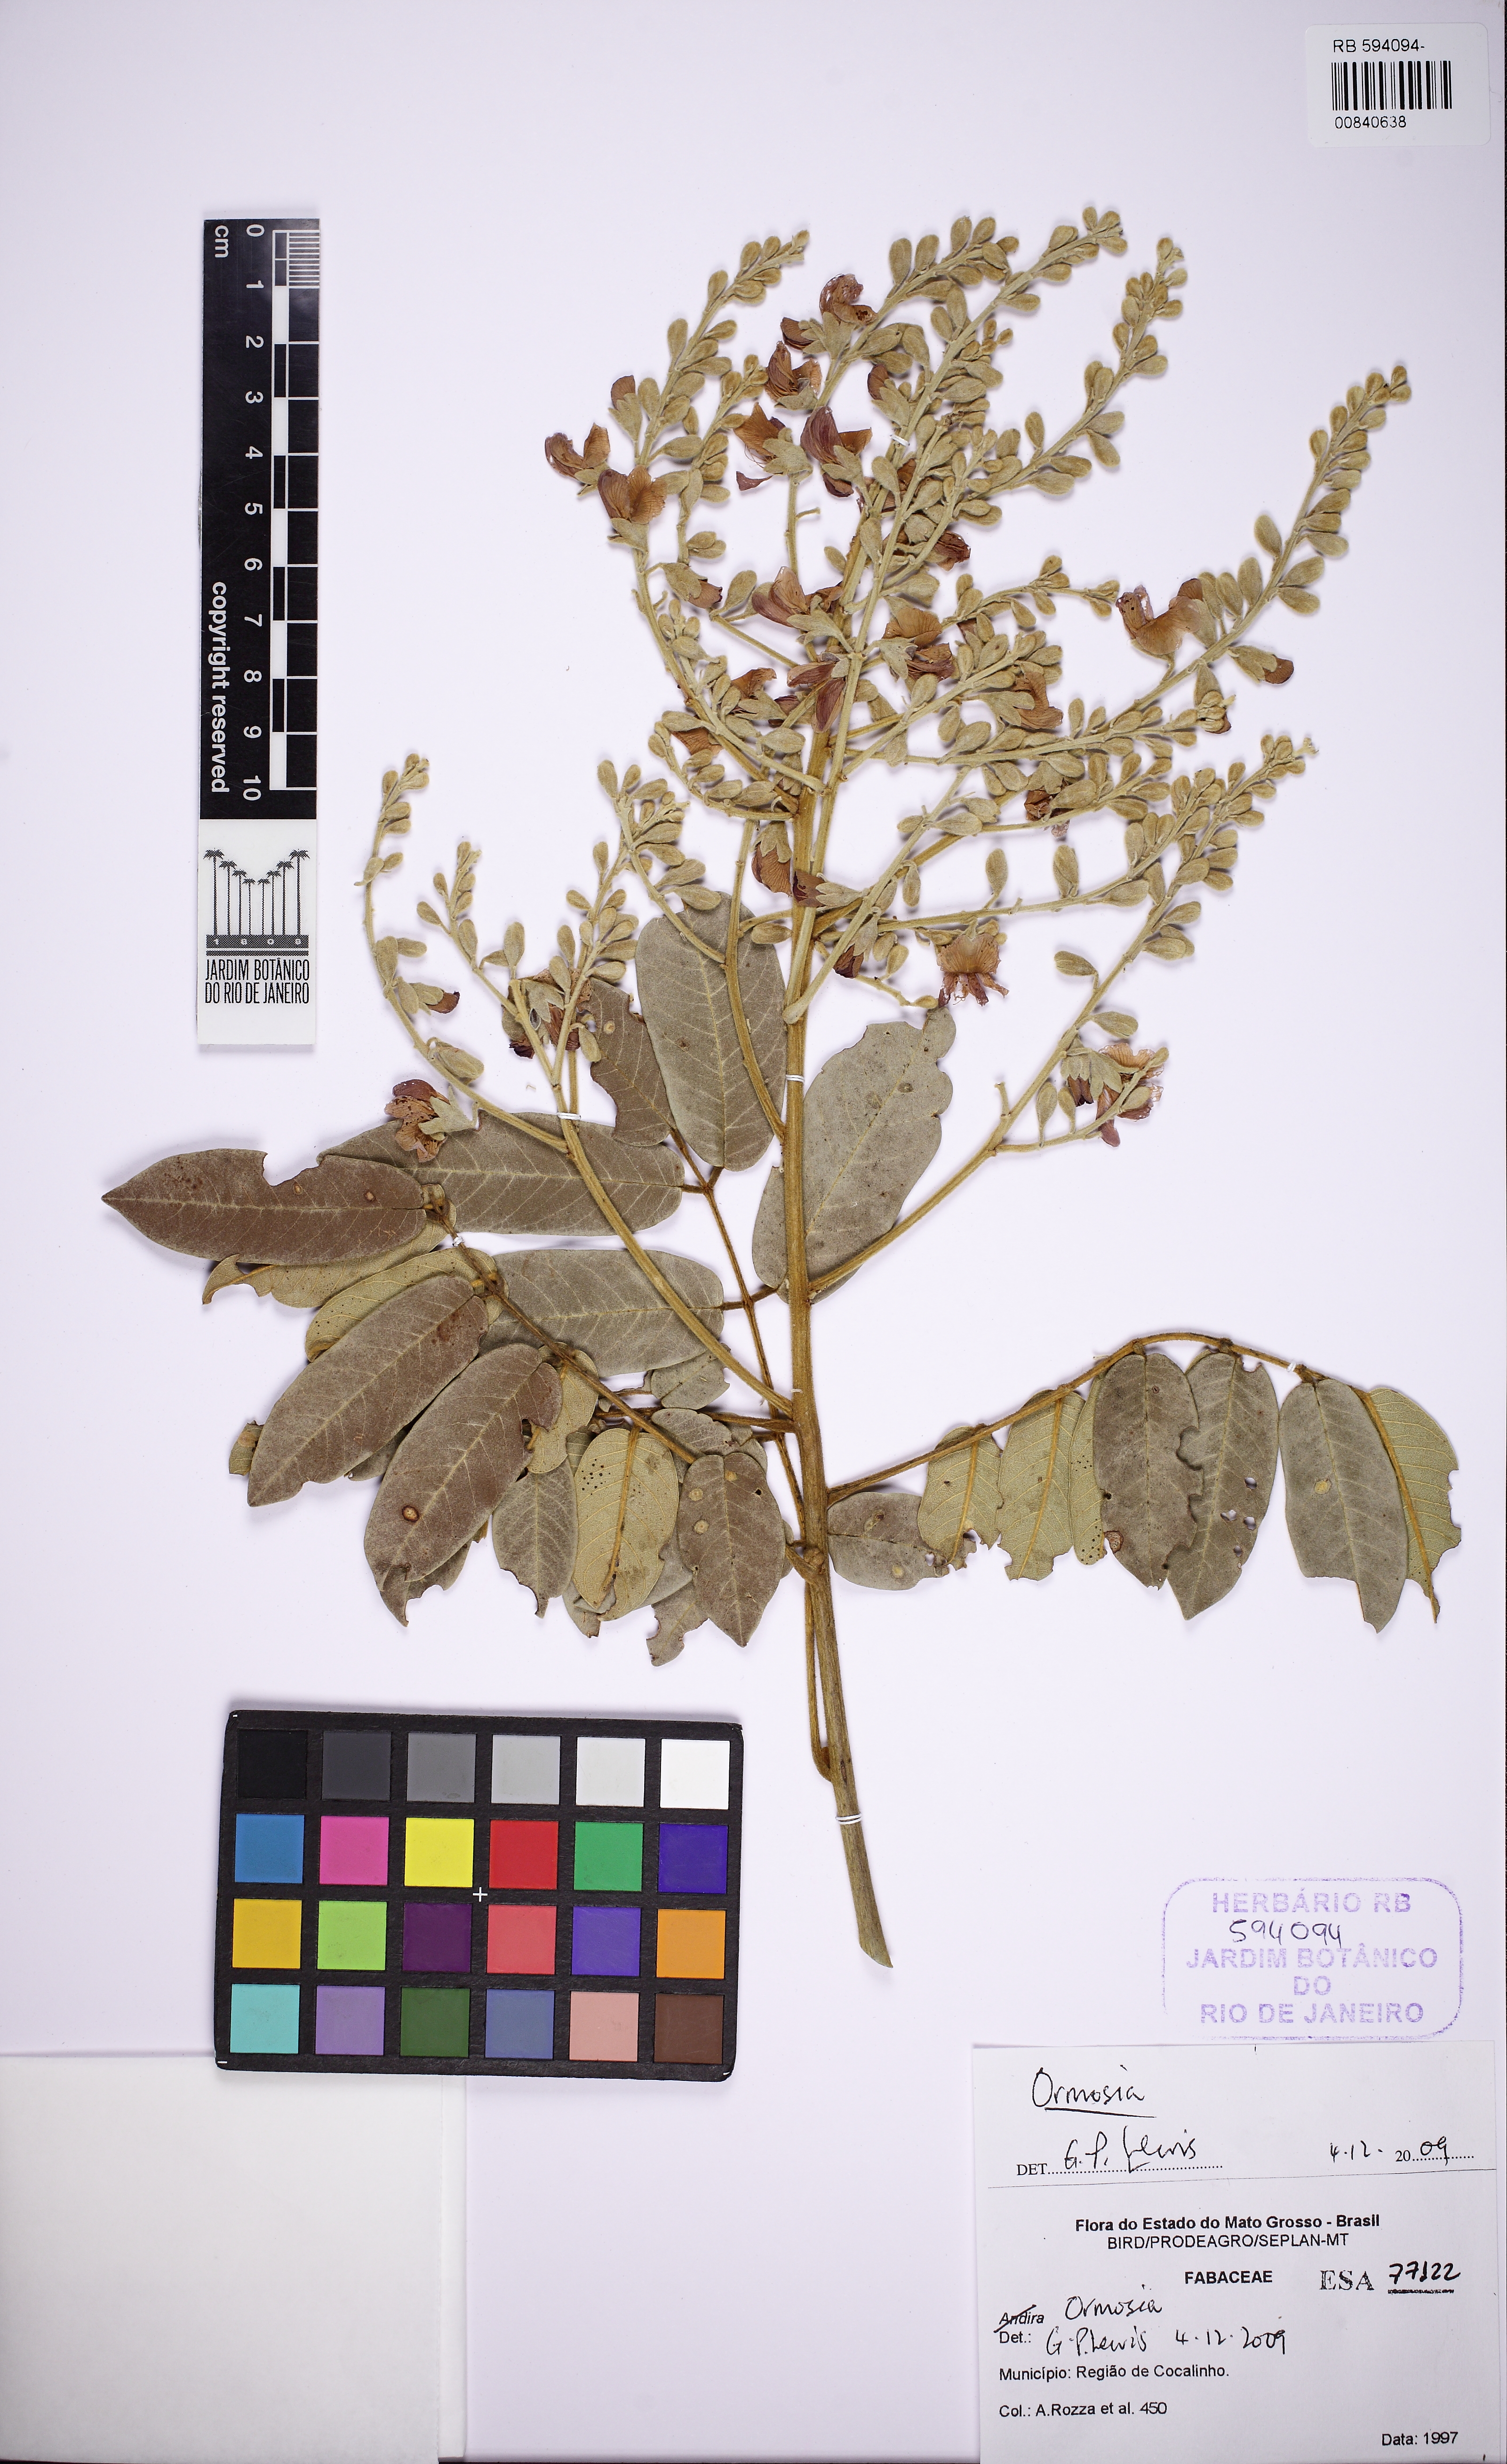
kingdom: Plantae
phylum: Tracheophyta
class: Magnoliopsida
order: Fabales
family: Fabaceae
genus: Ormosia
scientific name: Ormosia
